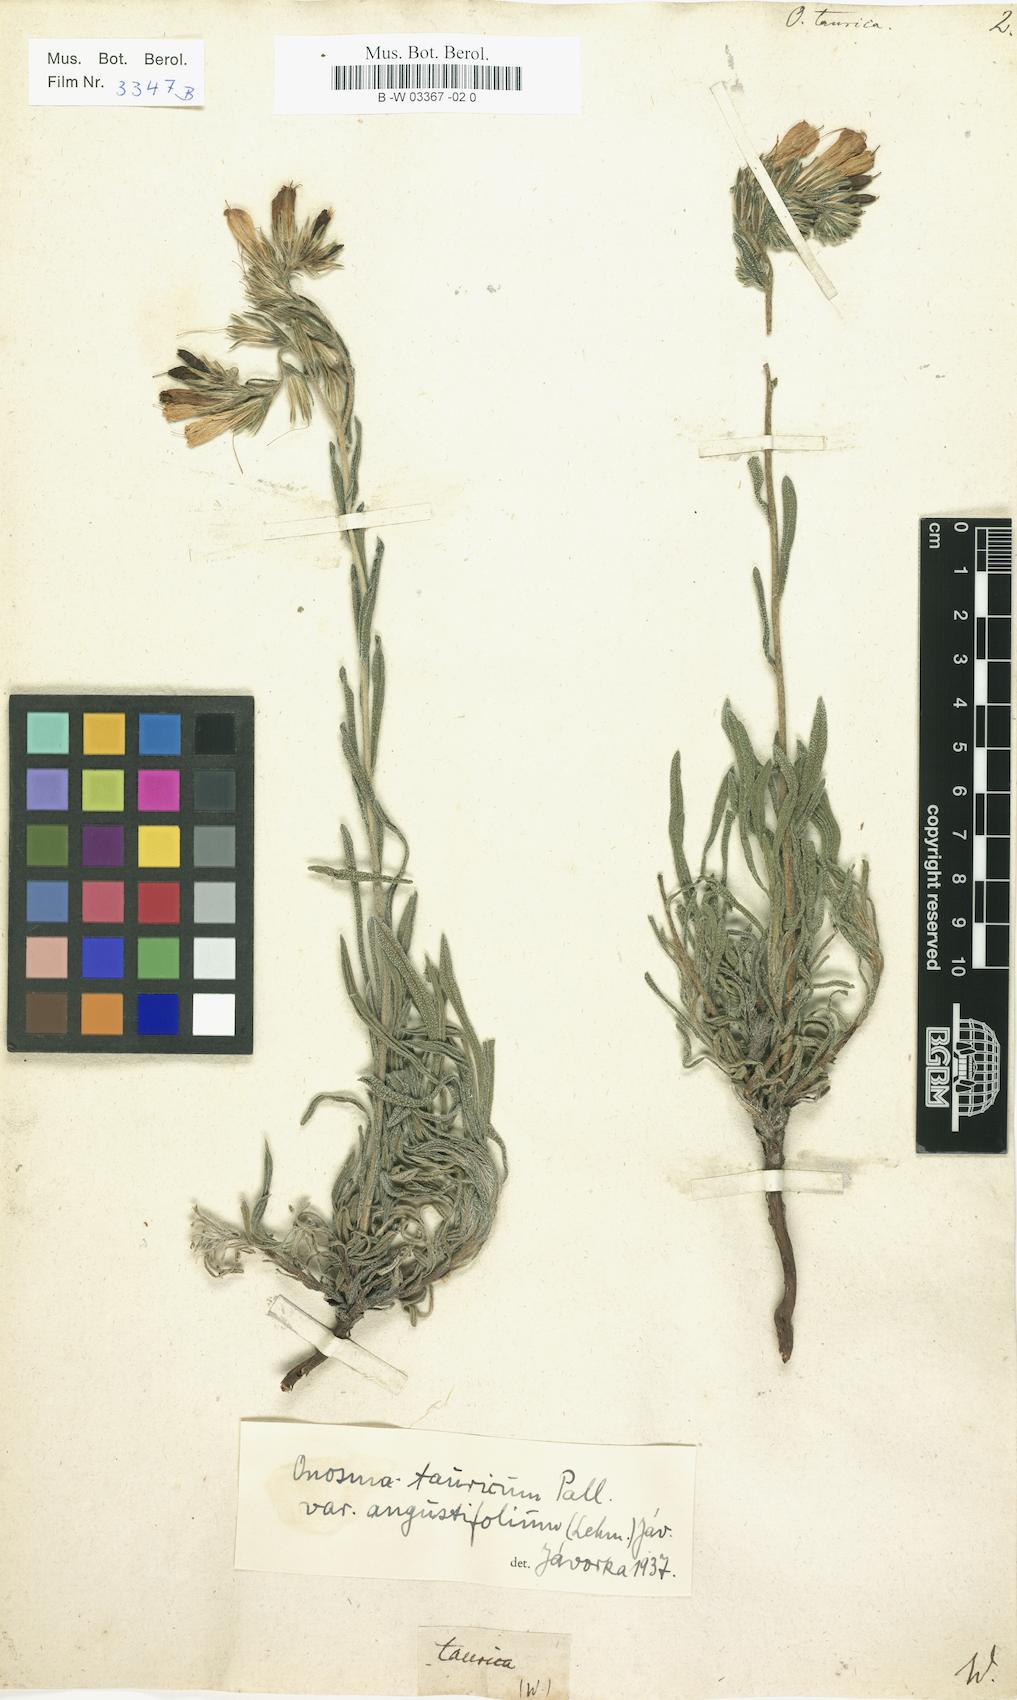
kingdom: Plantae
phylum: Tracheophyta
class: Magnoliopsida
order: Boraginales
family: Boraginaceae
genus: Onosma
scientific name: Onosma taurica
